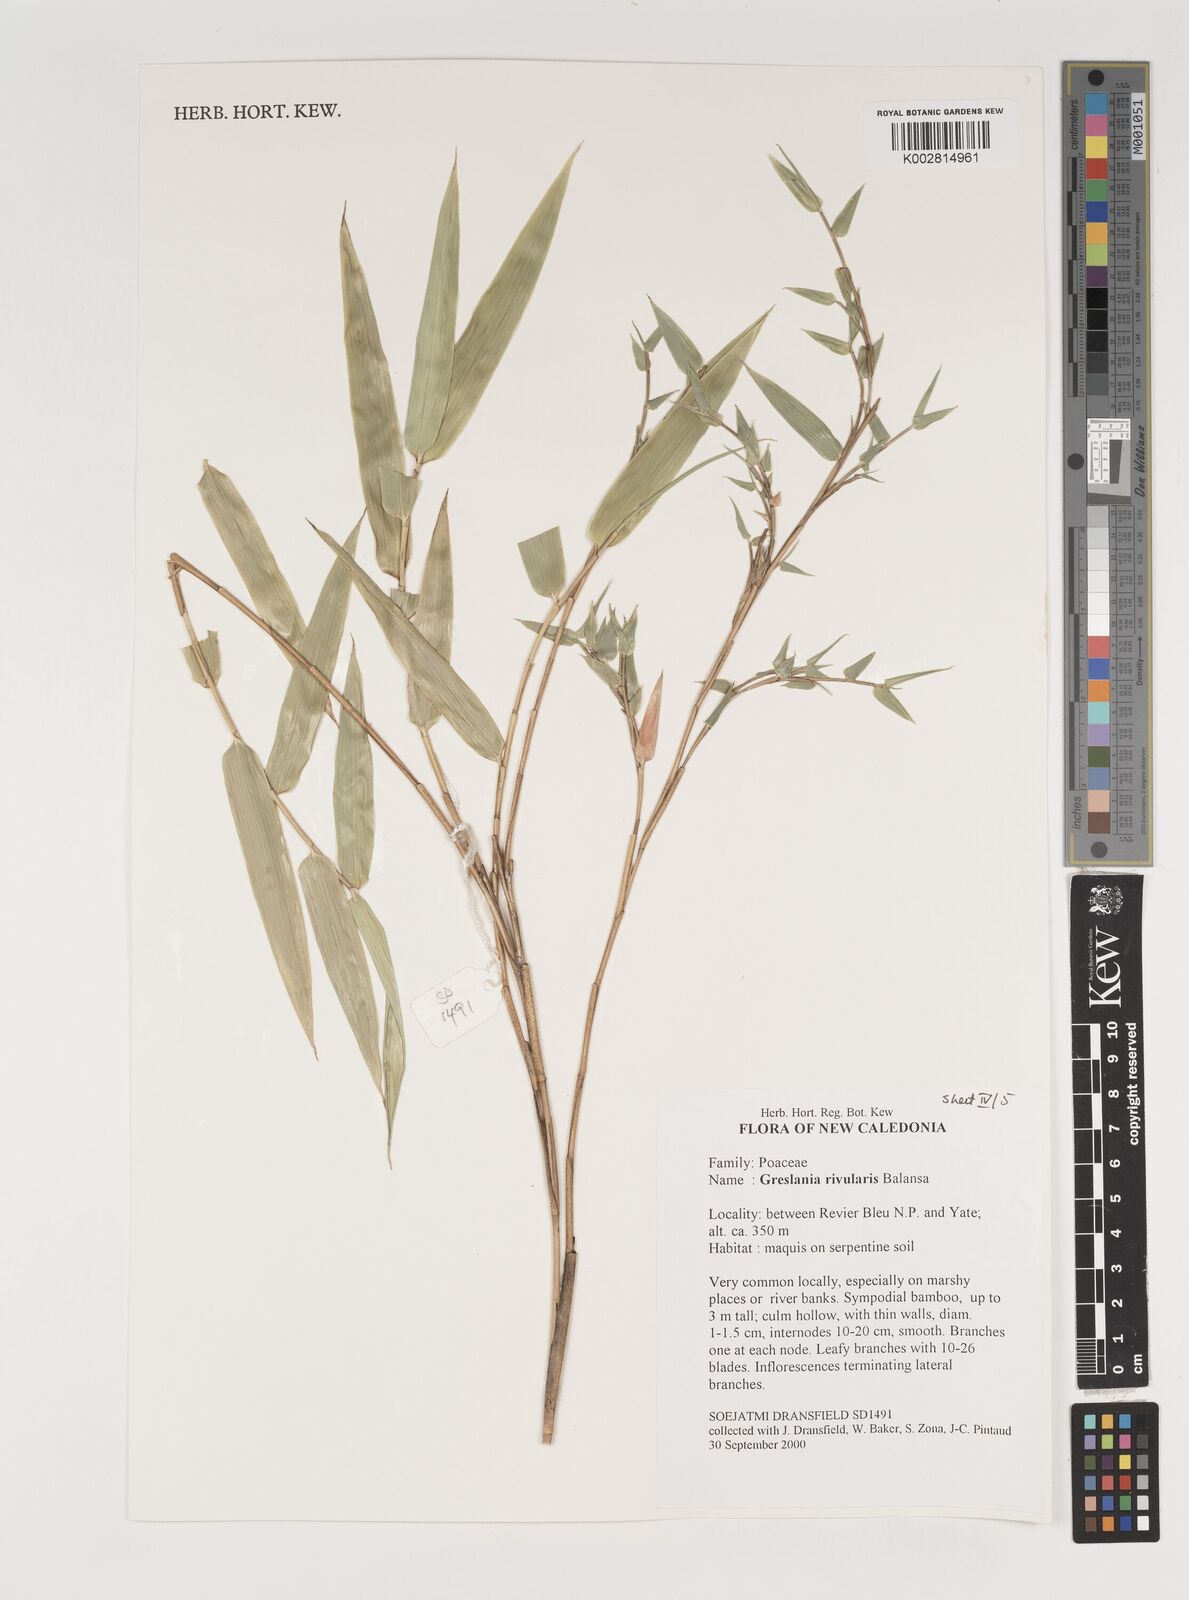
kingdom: Plantae
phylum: Tracheophyta
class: Liliopsida
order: Poales
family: Poaceae
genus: Greslania
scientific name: Greslania rivularis
